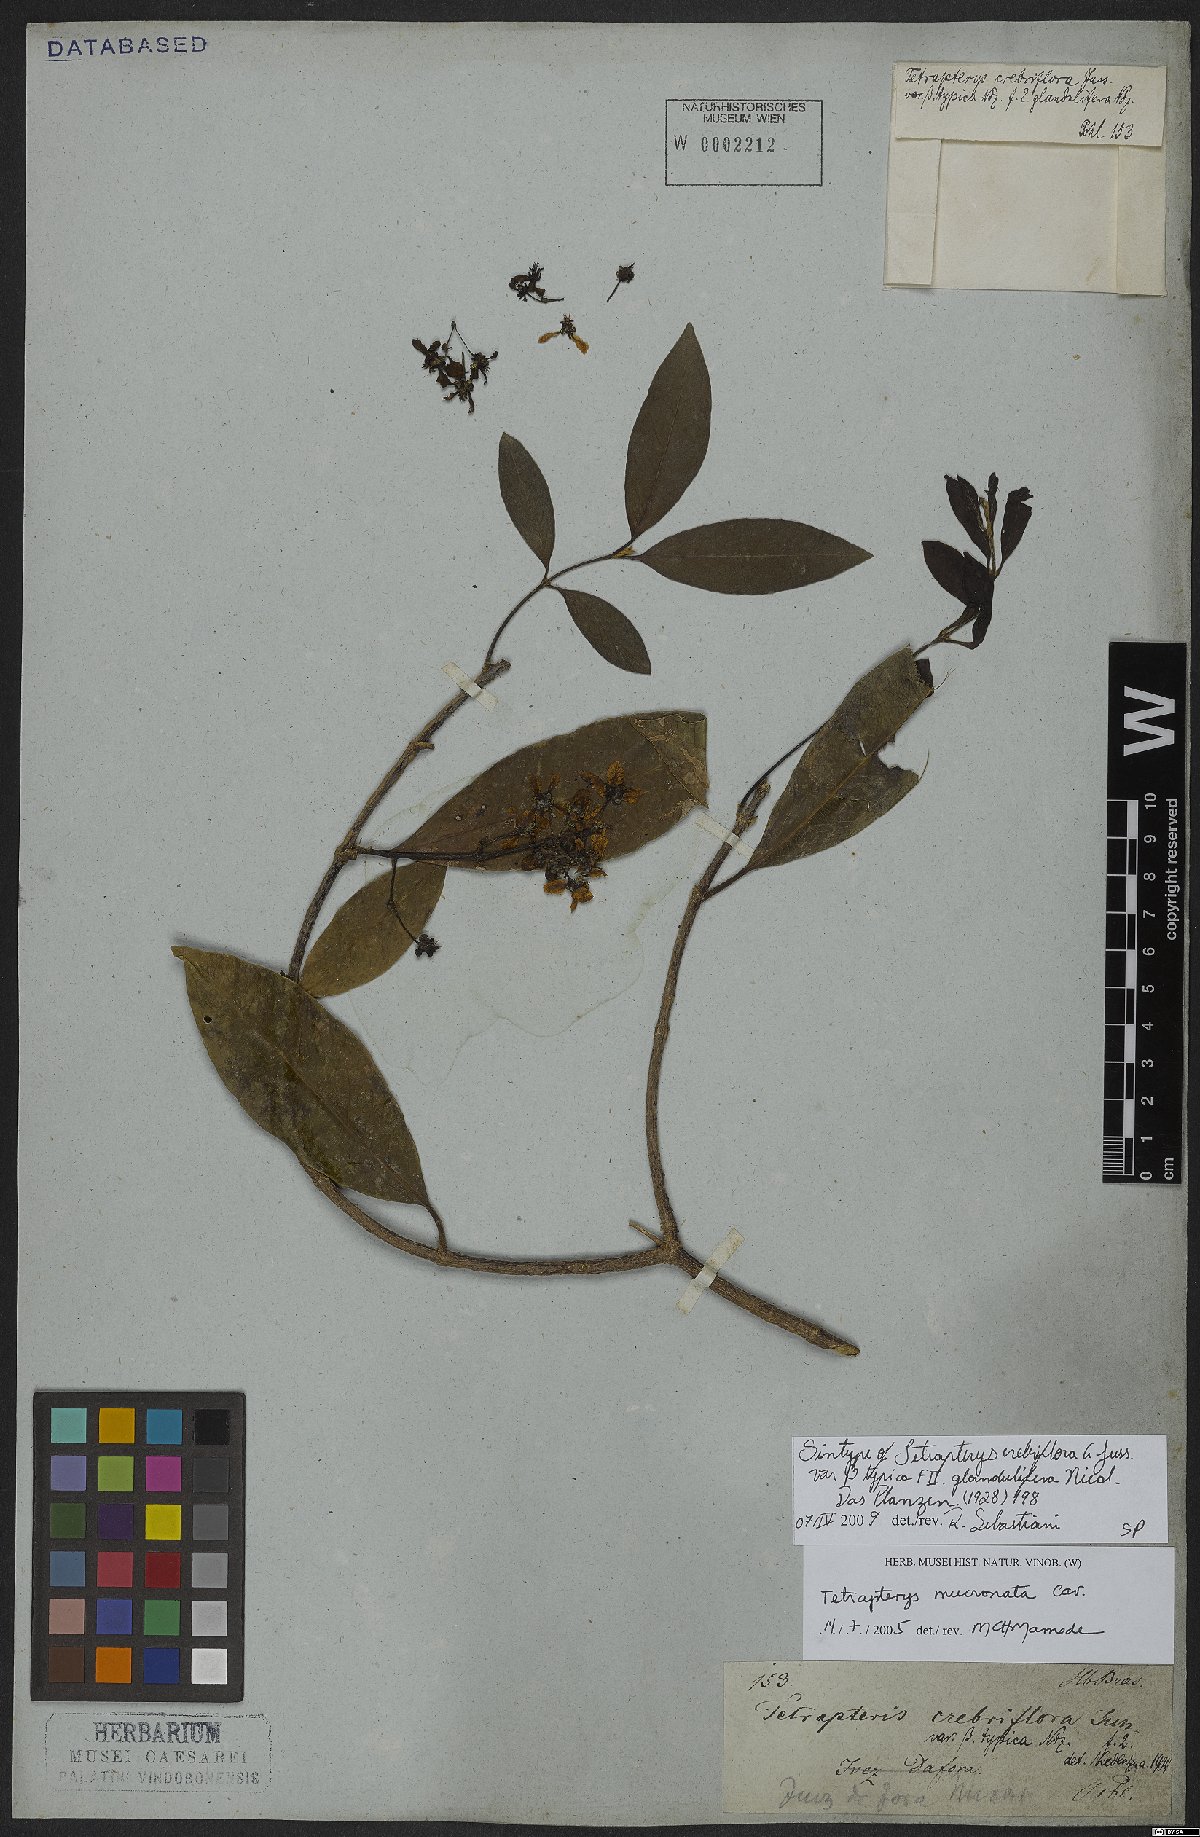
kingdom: Plantae
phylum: Tracheophyta
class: Magnoliopsida
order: Malpighiales
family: Malpighiaceae
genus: Tetrapterys
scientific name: Tetrapterys mucronata
